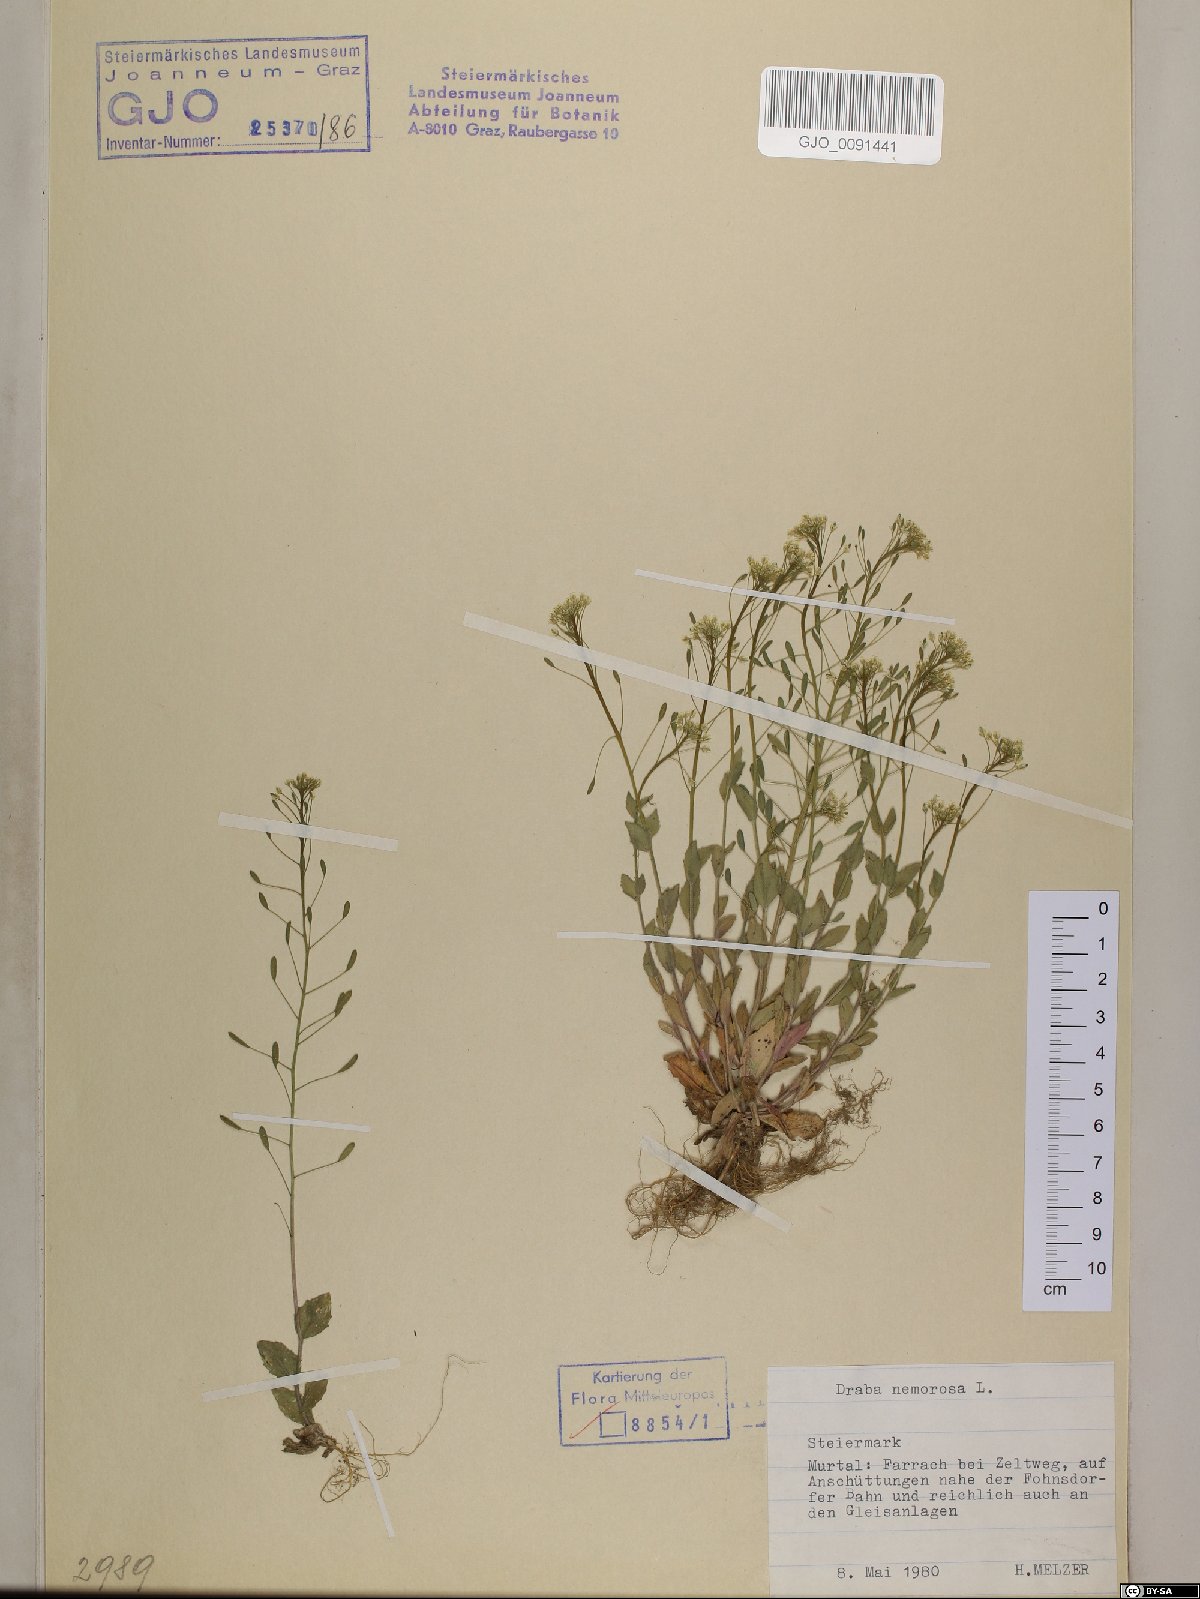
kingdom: Plantae
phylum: Tracheophyta
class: Magnoliopsida
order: Brassicales
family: Brassicaceae
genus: Draba
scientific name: Draba nemorosa
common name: Wood whitlow-grass
